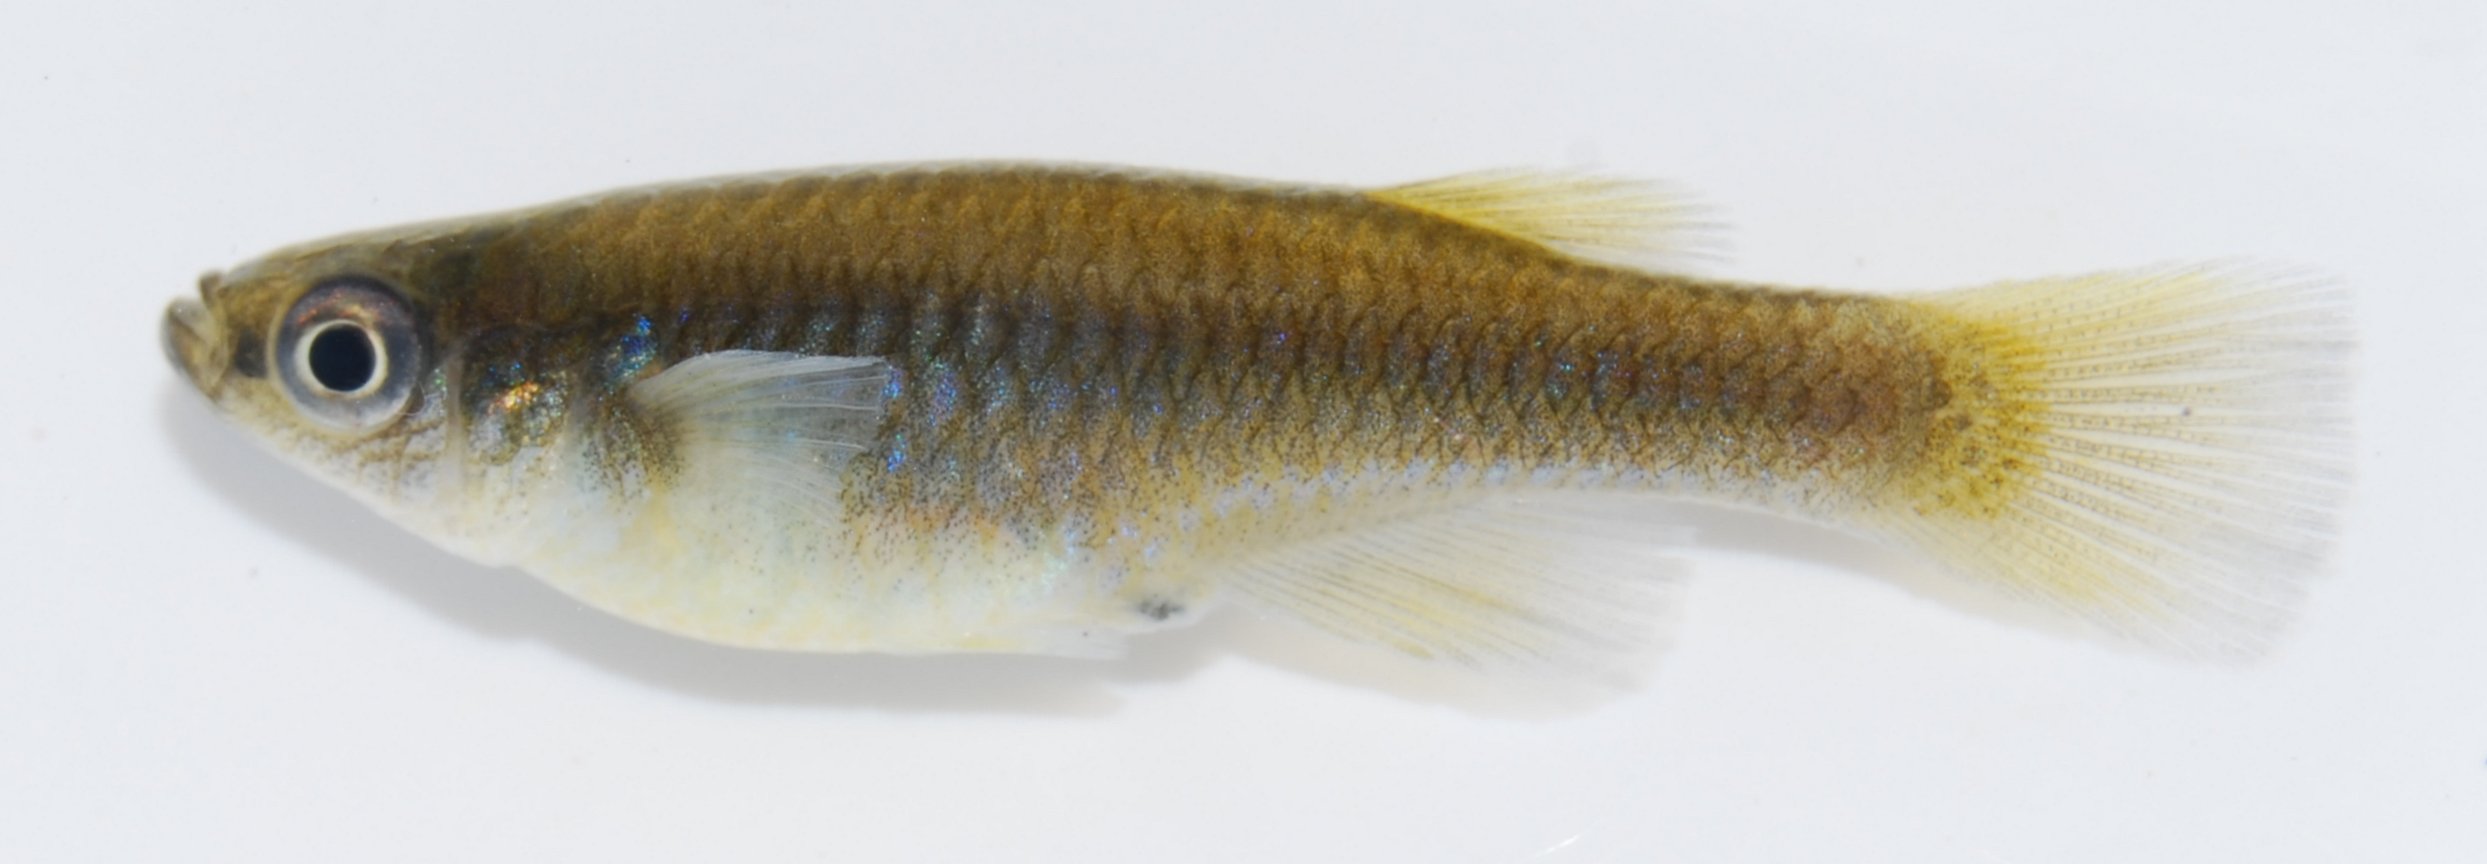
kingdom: Animalia
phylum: Chordata
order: Cyprinodontiformes
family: Poeciliidae
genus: Hypsopanchax
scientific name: Hypsopanchax jubbi
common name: Southern deepbody
